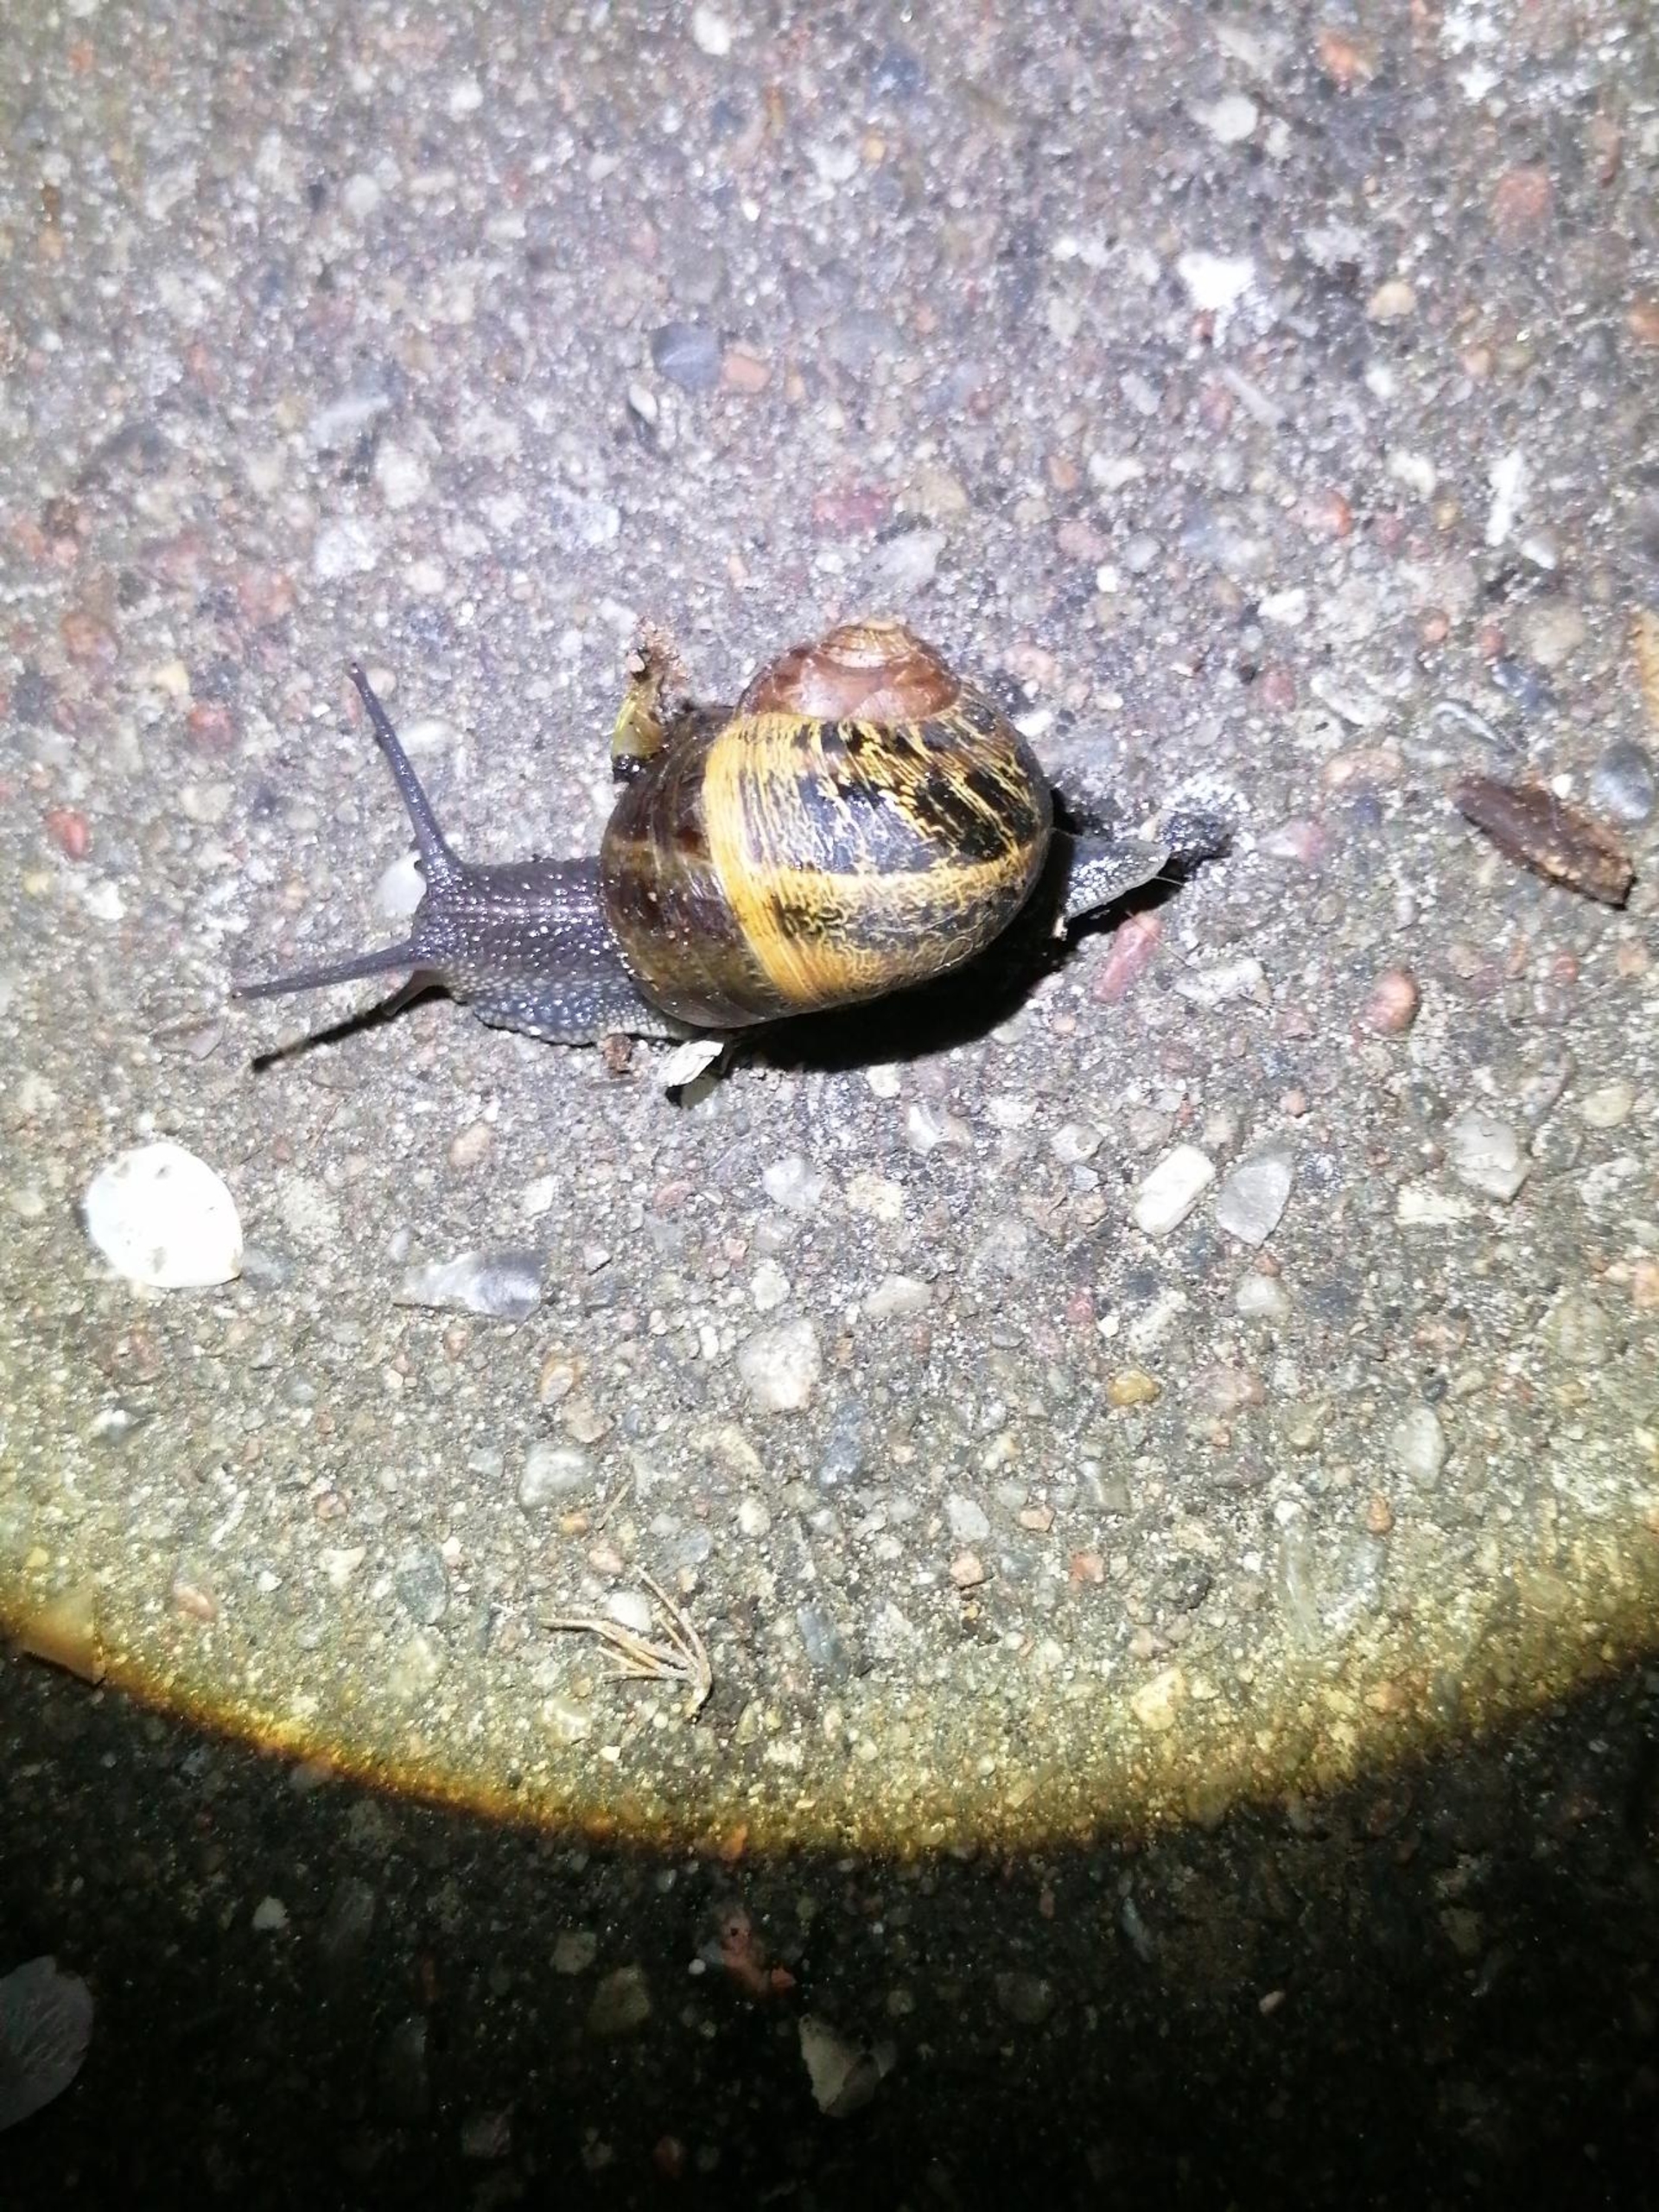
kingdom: Animalia
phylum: Mollusca
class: Gastropoda
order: Stylommatophora
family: Helicidae
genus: Cornu
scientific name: Cornu aspersum
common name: Plettet voldsnegl
